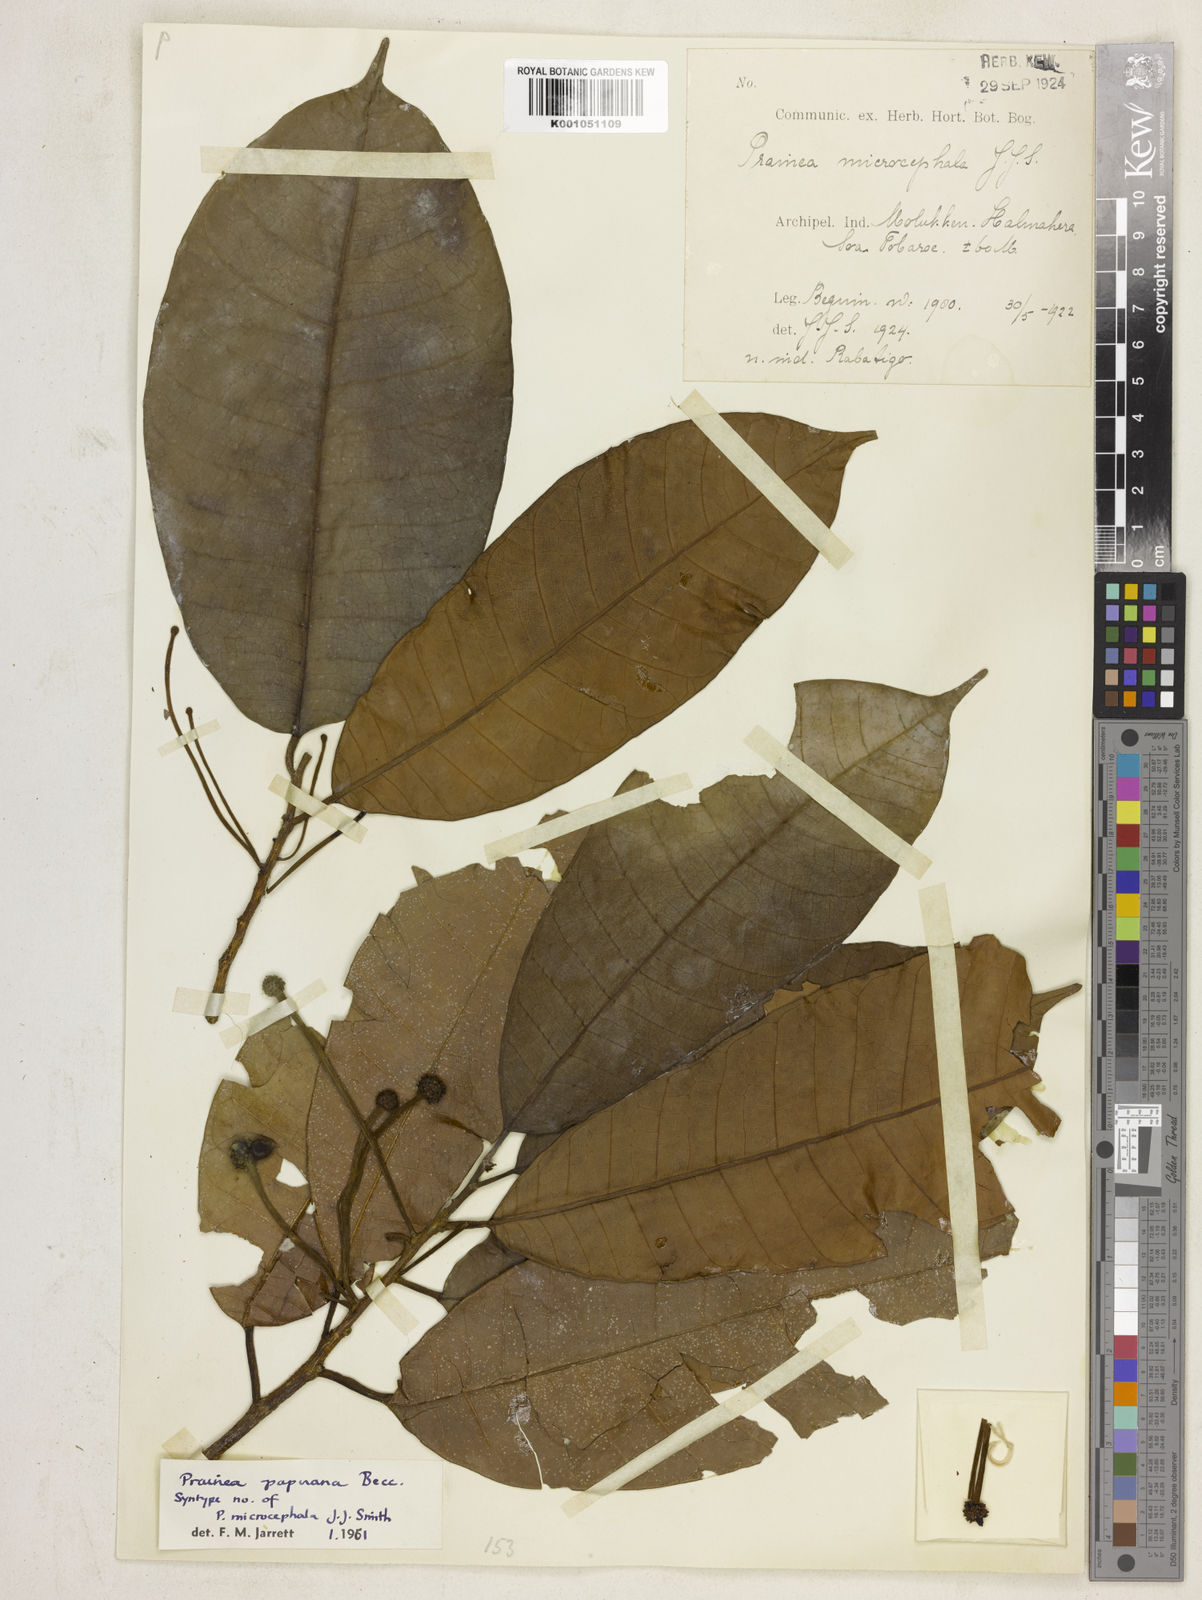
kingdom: Plantae
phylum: Tracheophyta
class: Magnoliopsida
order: Rosales
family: Moraceae
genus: Prainea
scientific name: Prainea limpato
